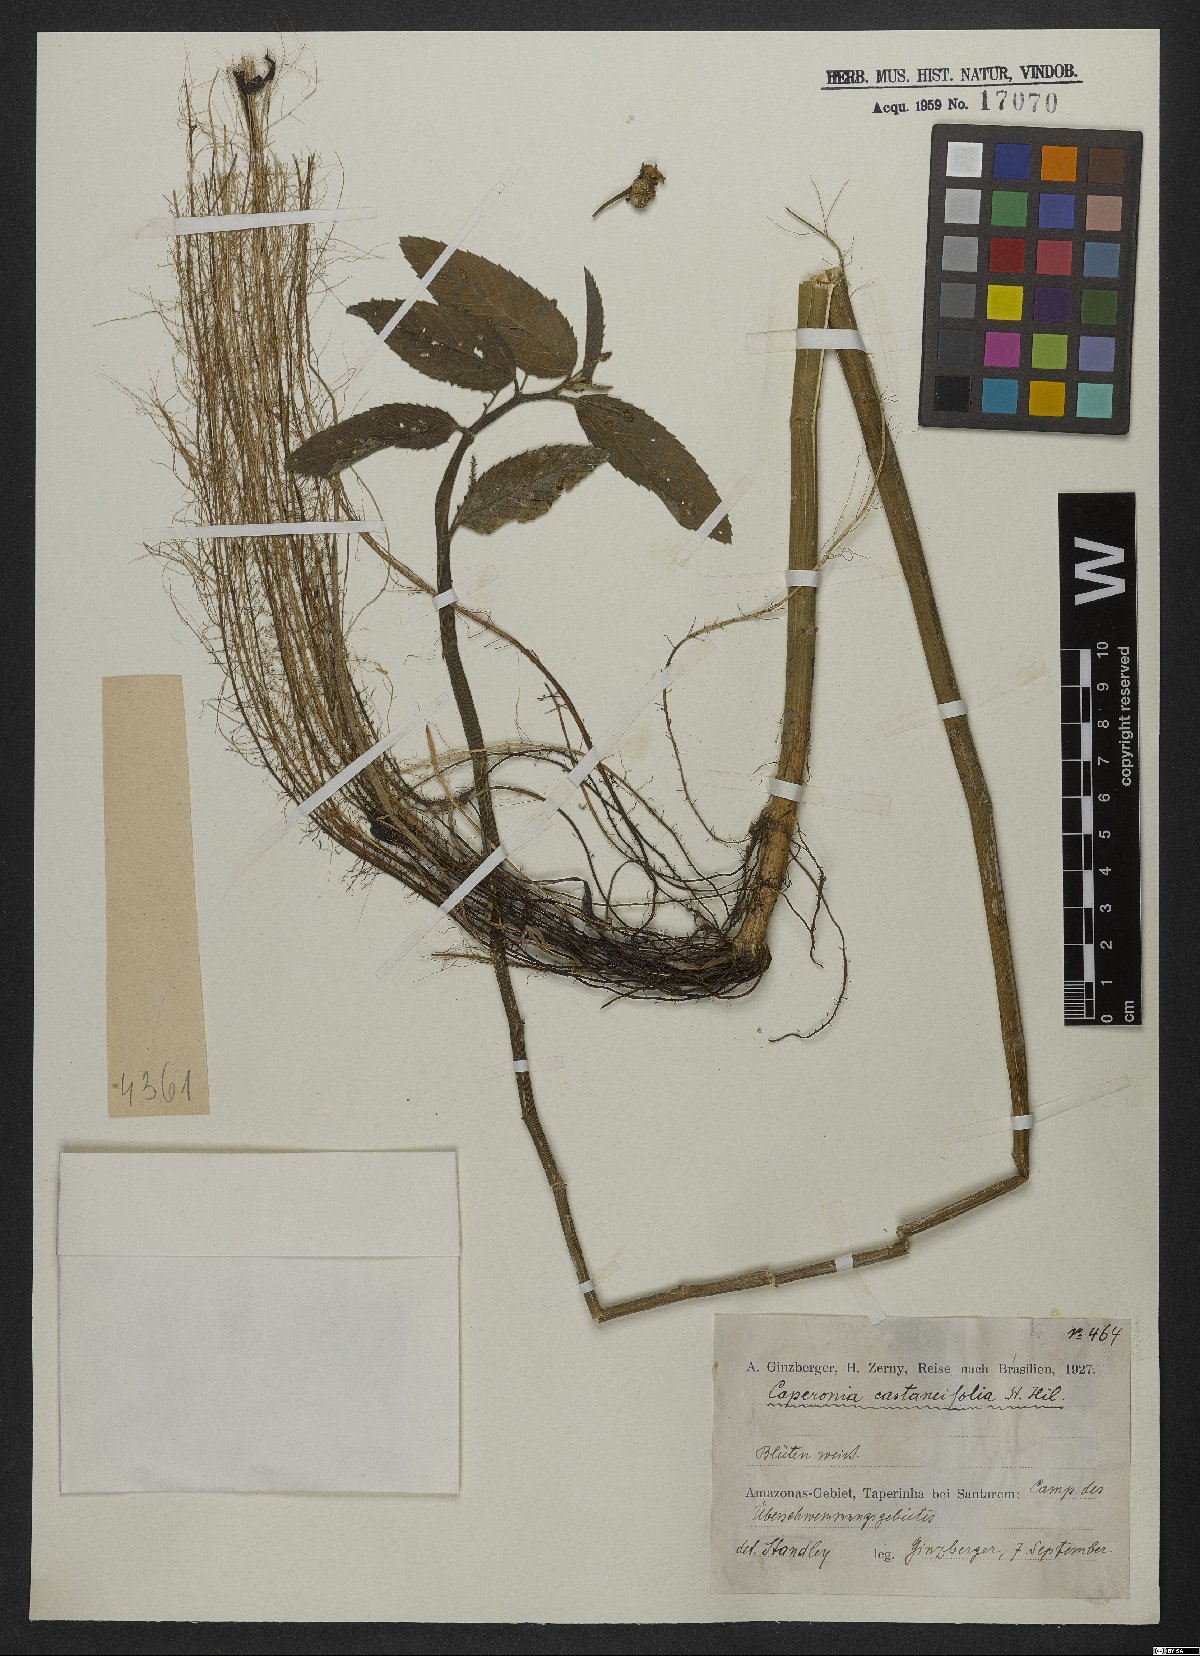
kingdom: Plantae
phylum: Tracheophyta
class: Magnoliopsida
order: Malpighiales
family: Euphorbiaceae
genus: Caperonia
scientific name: Caperonia castaneifolia
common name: Chestnutleaf false croton
